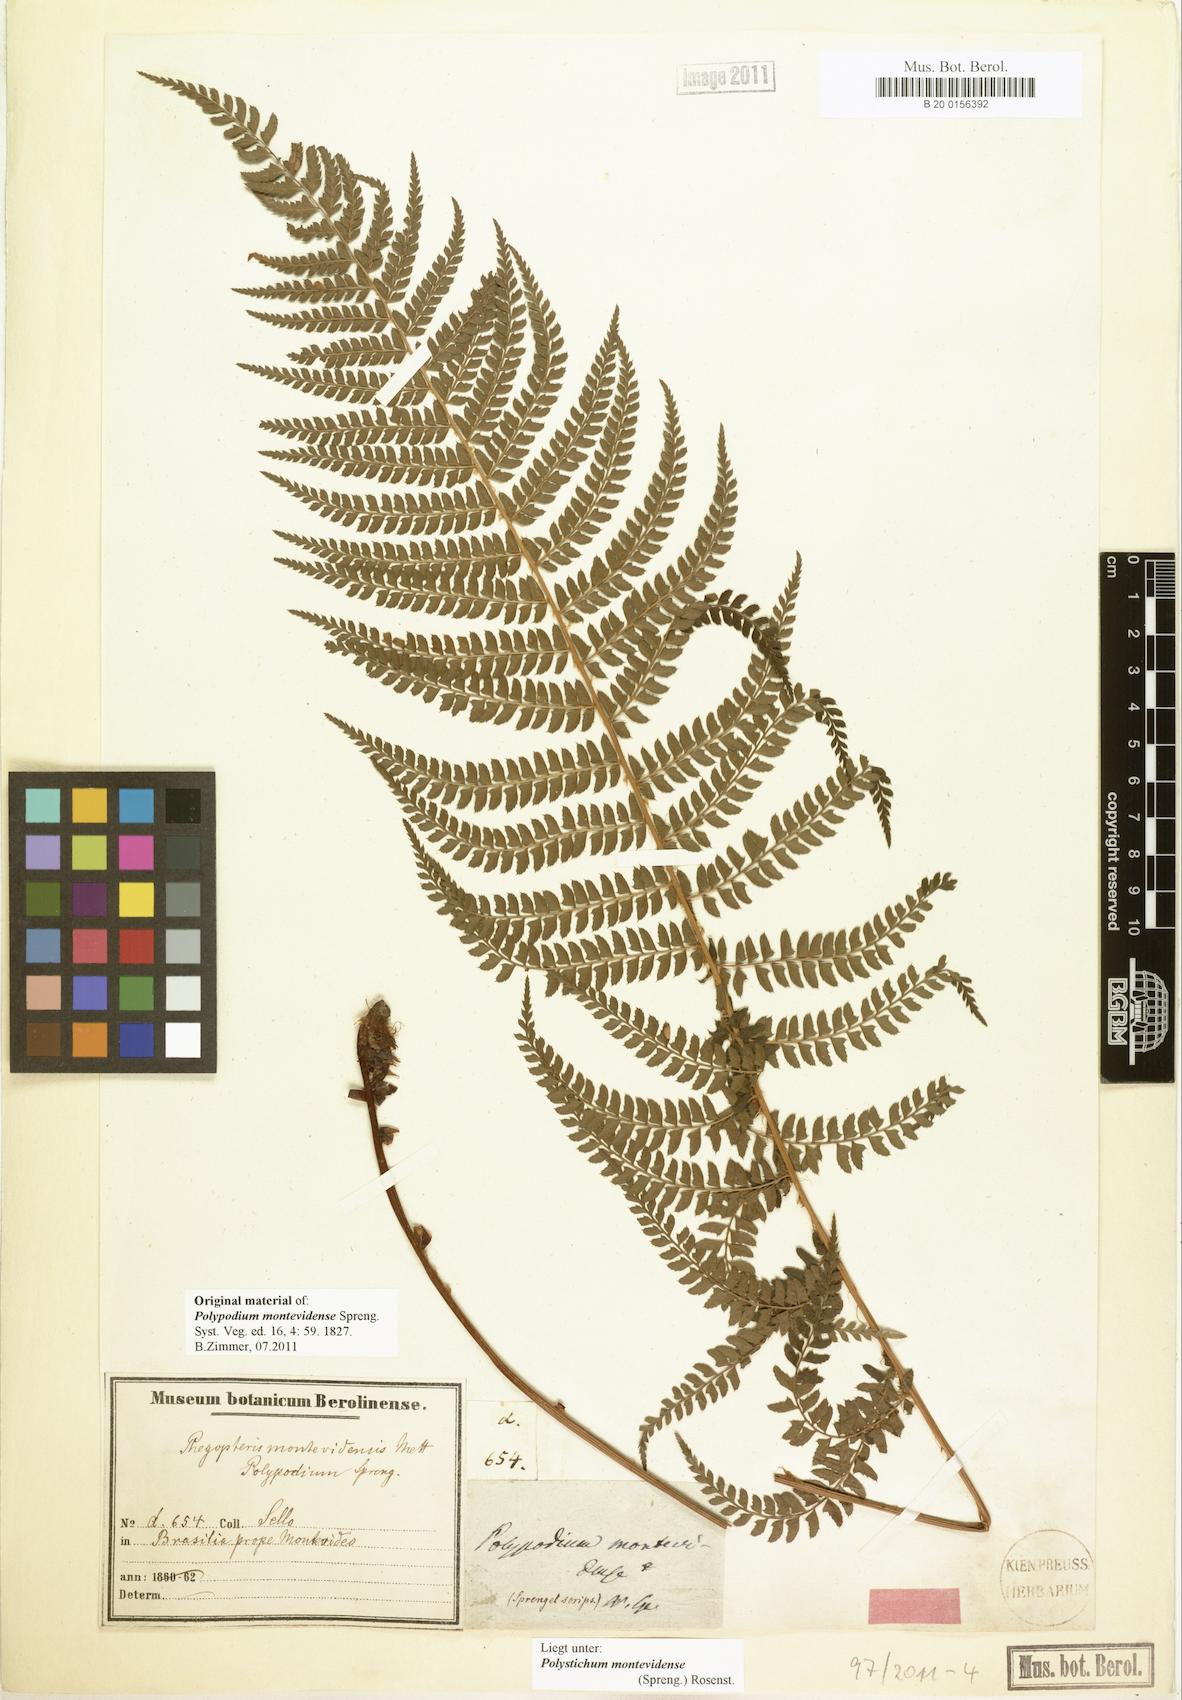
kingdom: Plantae
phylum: Tracheophyta
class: Polypodiopsida
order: Polypodiales
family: Dryopteridaceae
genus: Polystichum
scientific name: Polystichum montevidense
